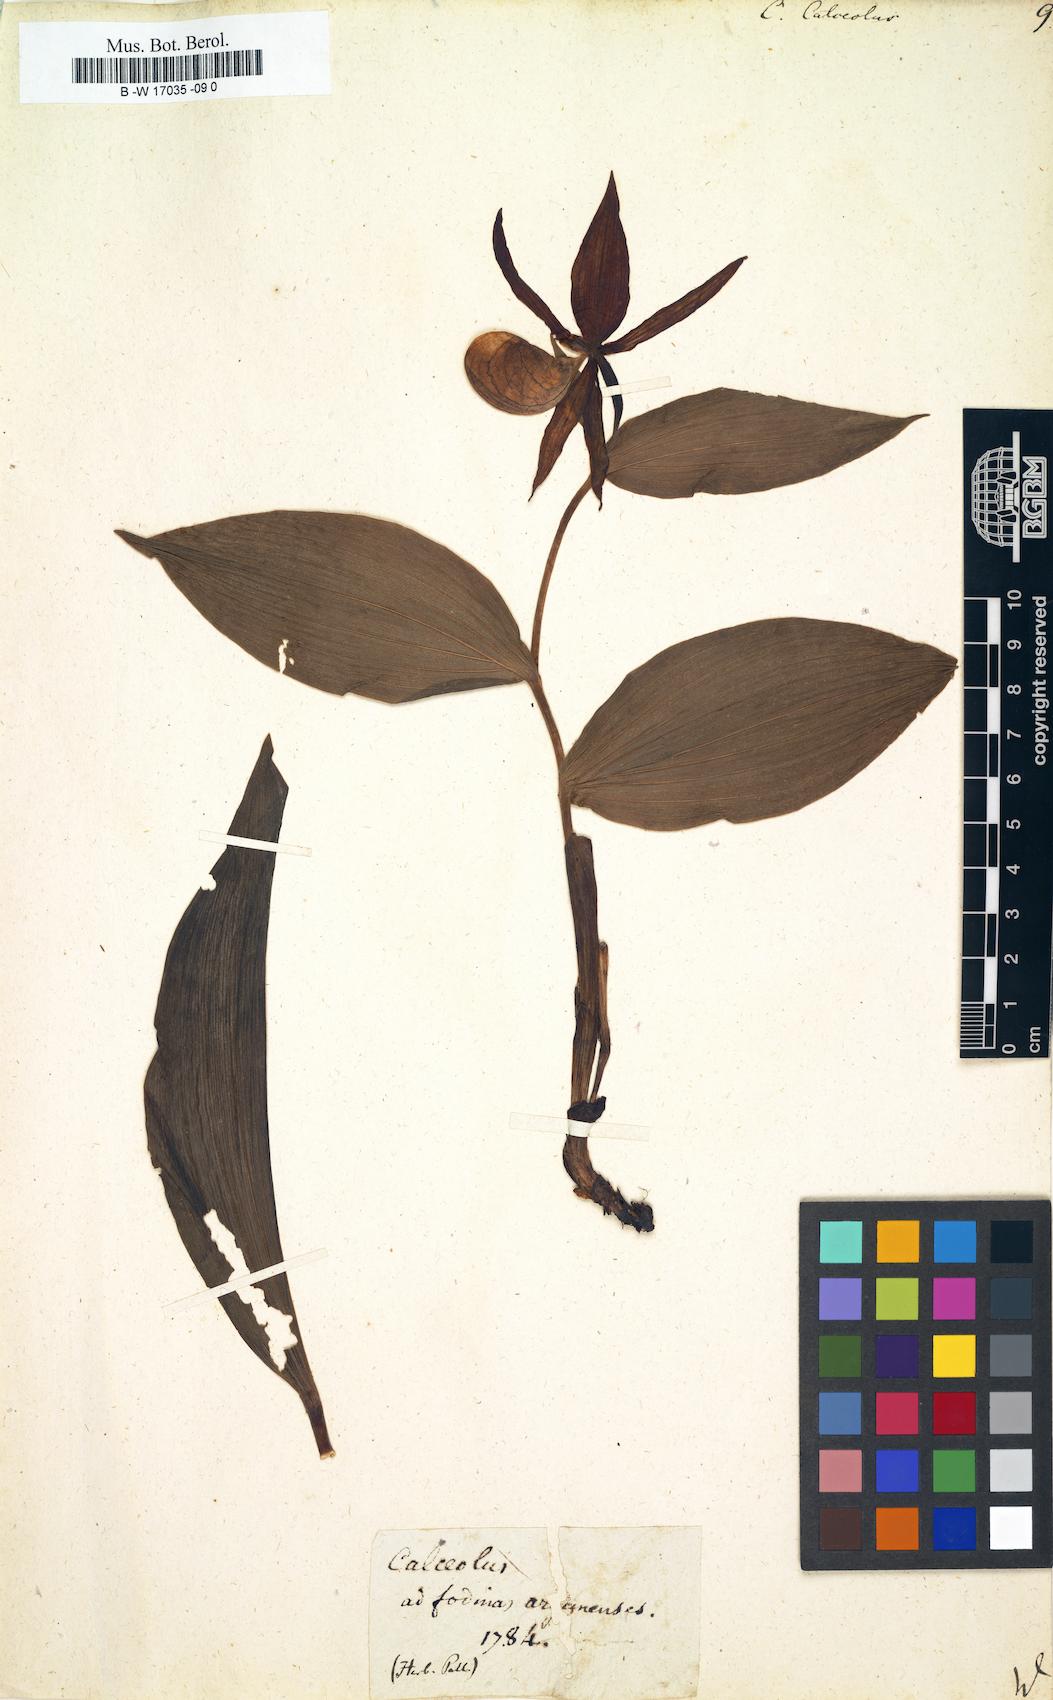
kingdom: Plantae
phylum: Tracheophyta
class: Liliopsida
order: Asparagales
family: Orchidaceae
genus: Cypripedium
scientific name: Cypripedium calceolus
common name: Lady's-slipper
